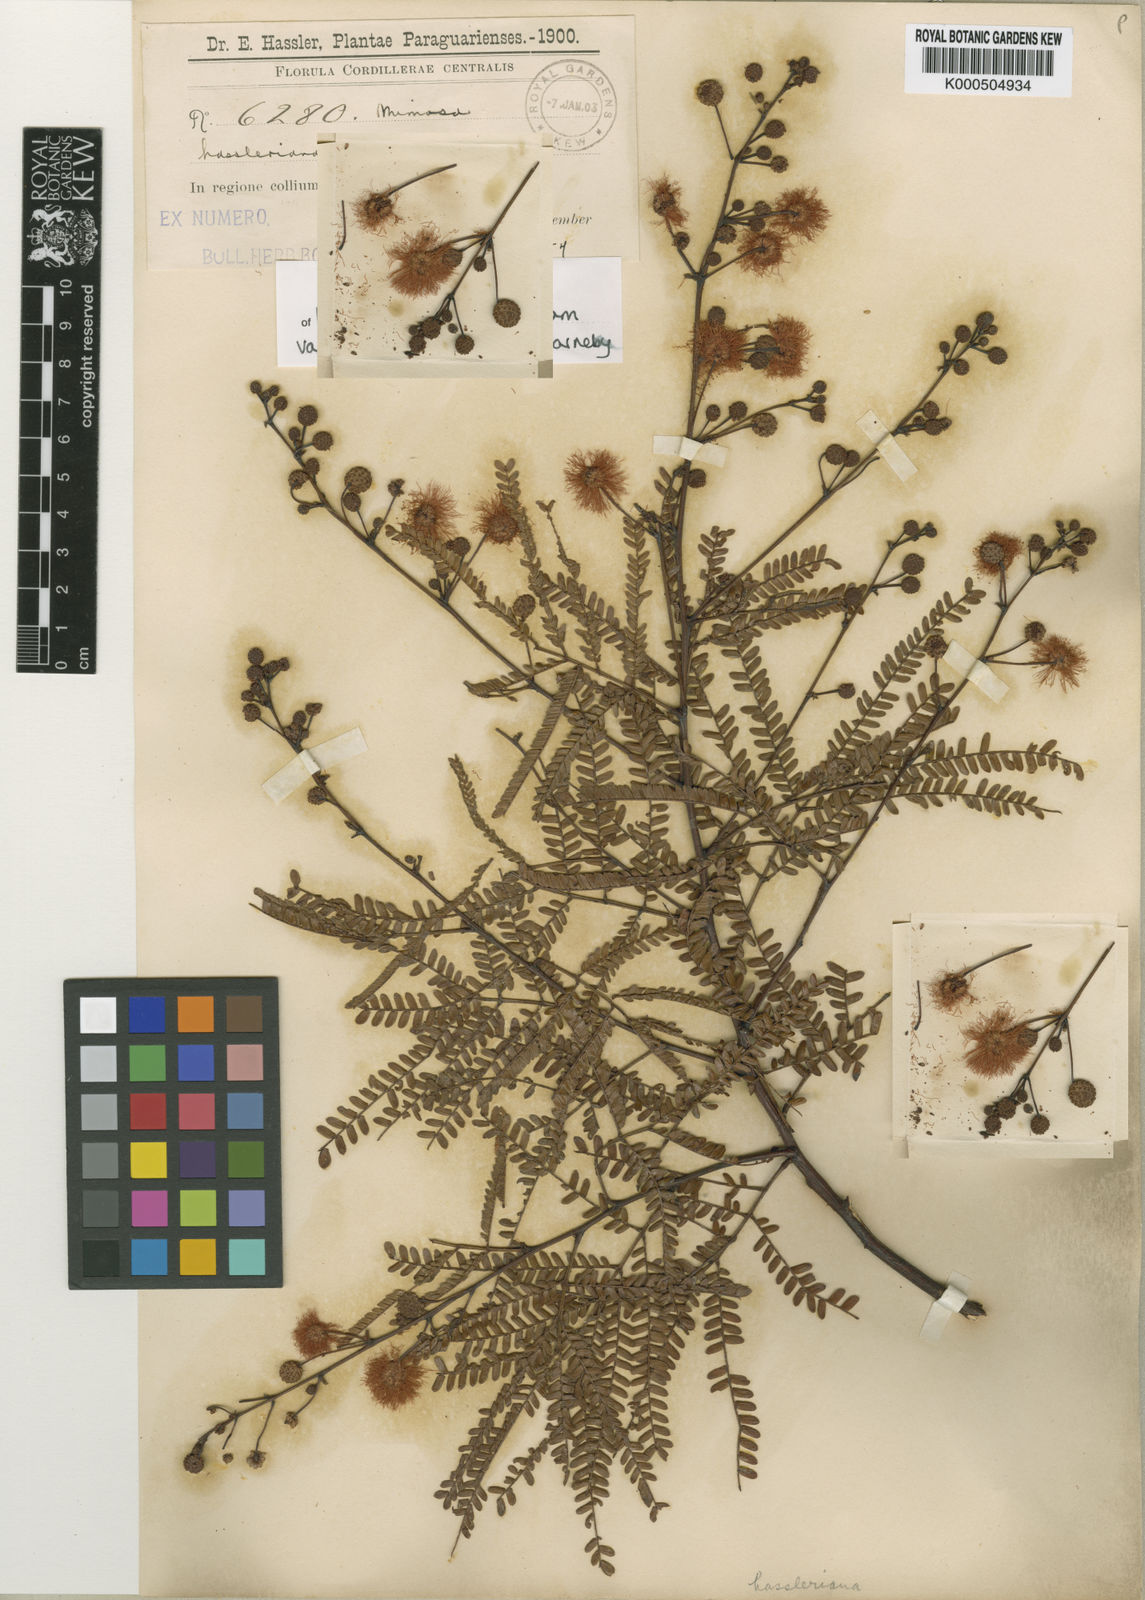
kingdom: Plantae
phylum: Tracheophyta
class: Magnoliopsida
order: Fabales
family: Fabaceae
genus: Mimosa
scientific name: Mimosa bifurca
